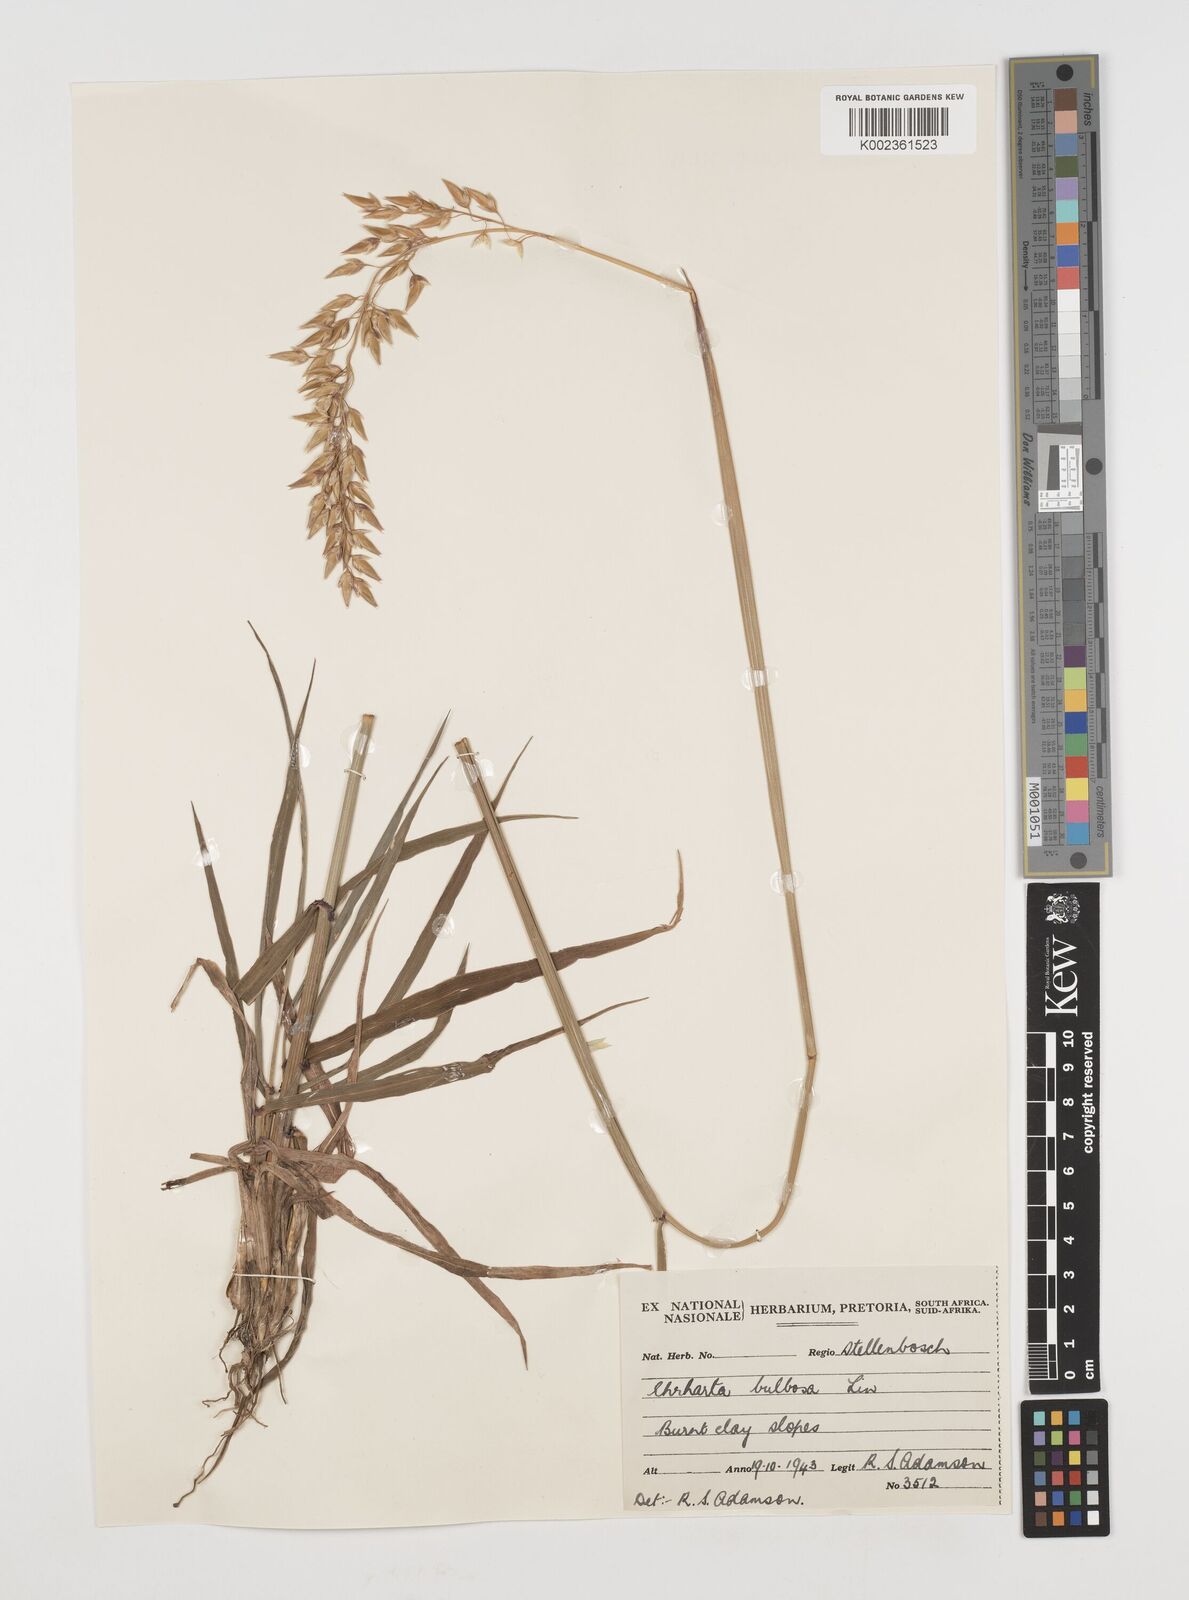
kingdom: Plantae
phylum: Tracheophyta
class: Liliopsida
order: Poales
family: Poaceae
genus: Ehrharta
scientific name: Ehrharta capensis
